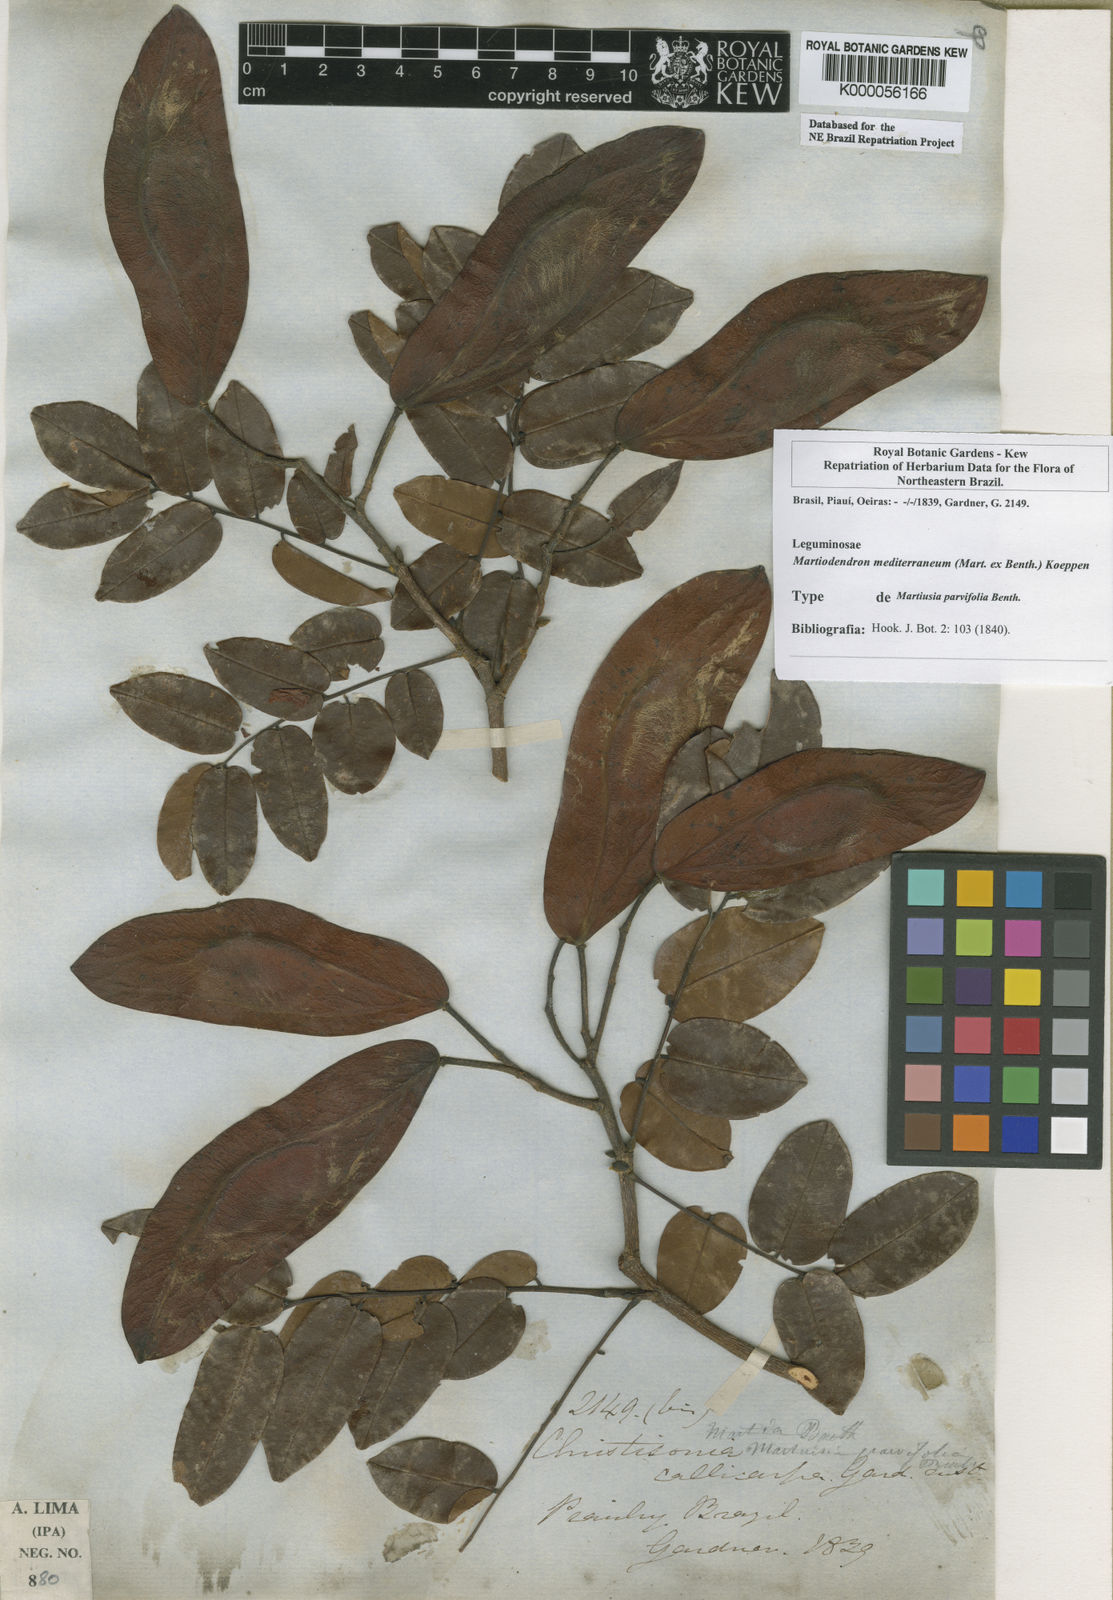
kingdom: Plantae
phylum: Tracheophyta
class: Magnoliopsida
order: Fabales
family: Fabaceae
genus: Martiodendron
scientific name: Martiodendron
